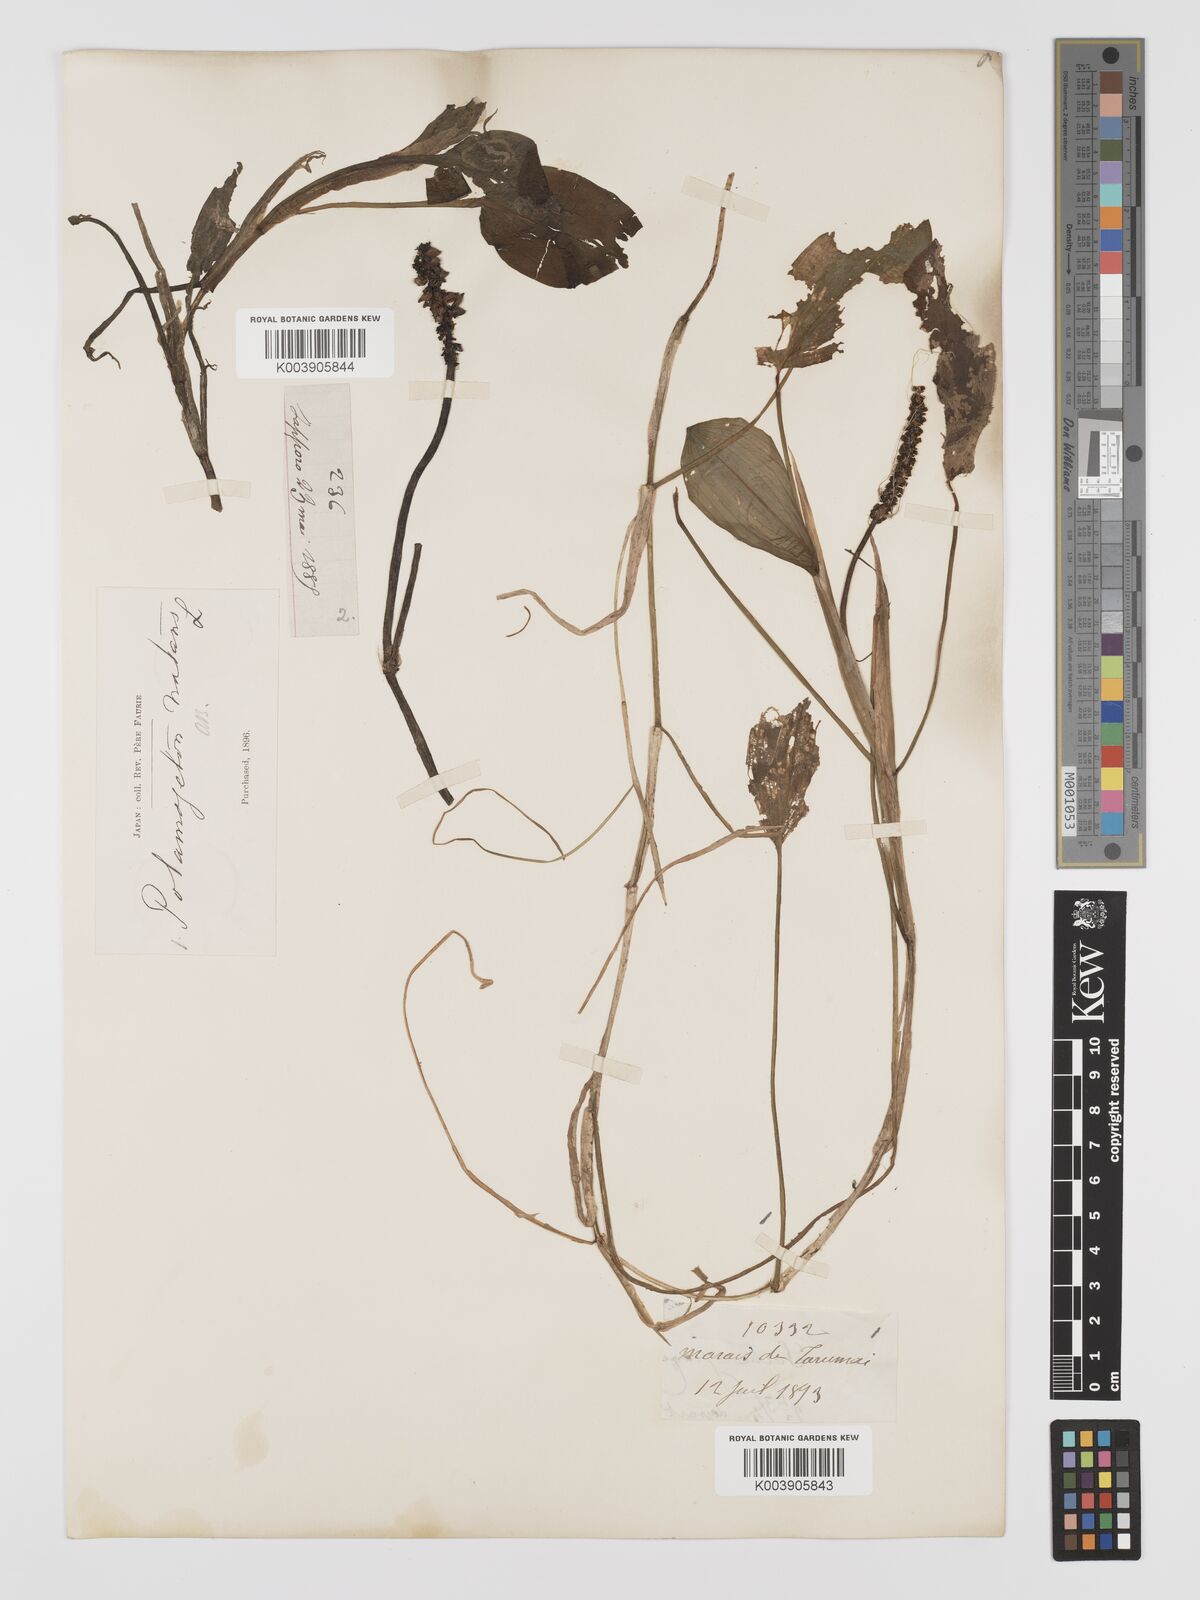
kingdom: Plantae
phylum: Tracheophyta
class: Liliopsida
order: Alismatales
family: Potamogetonaceae
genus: Potamogeton
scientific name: Potamogeton natans
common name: Broad-leaved pondweed
